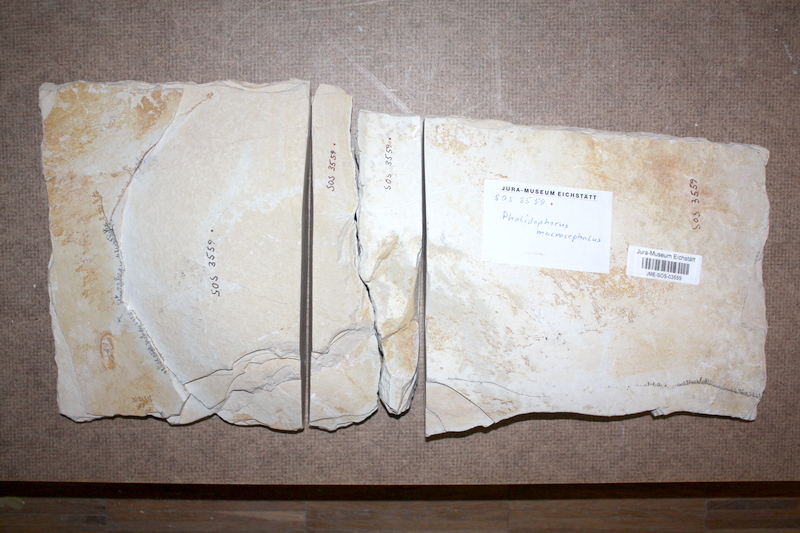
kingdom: Animalia
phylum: Chordata
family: Ankylophoridae
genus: Siemensichthys
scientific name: Siemensichthys macrocephalus
